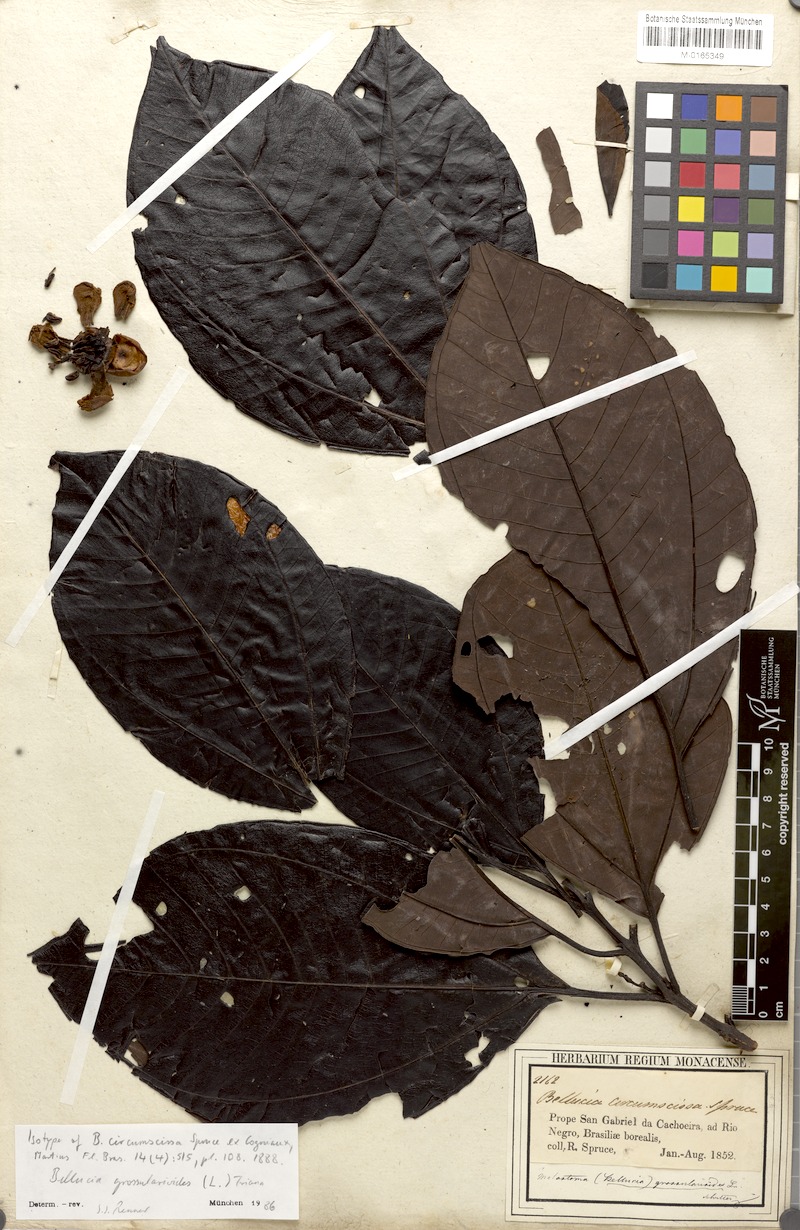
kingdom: Plantae
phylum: Tracheophyta
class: Magnoliopsida
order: Myrtales
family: Melastomataceae
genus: Bellucia
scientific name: Bellucia grossularioides
